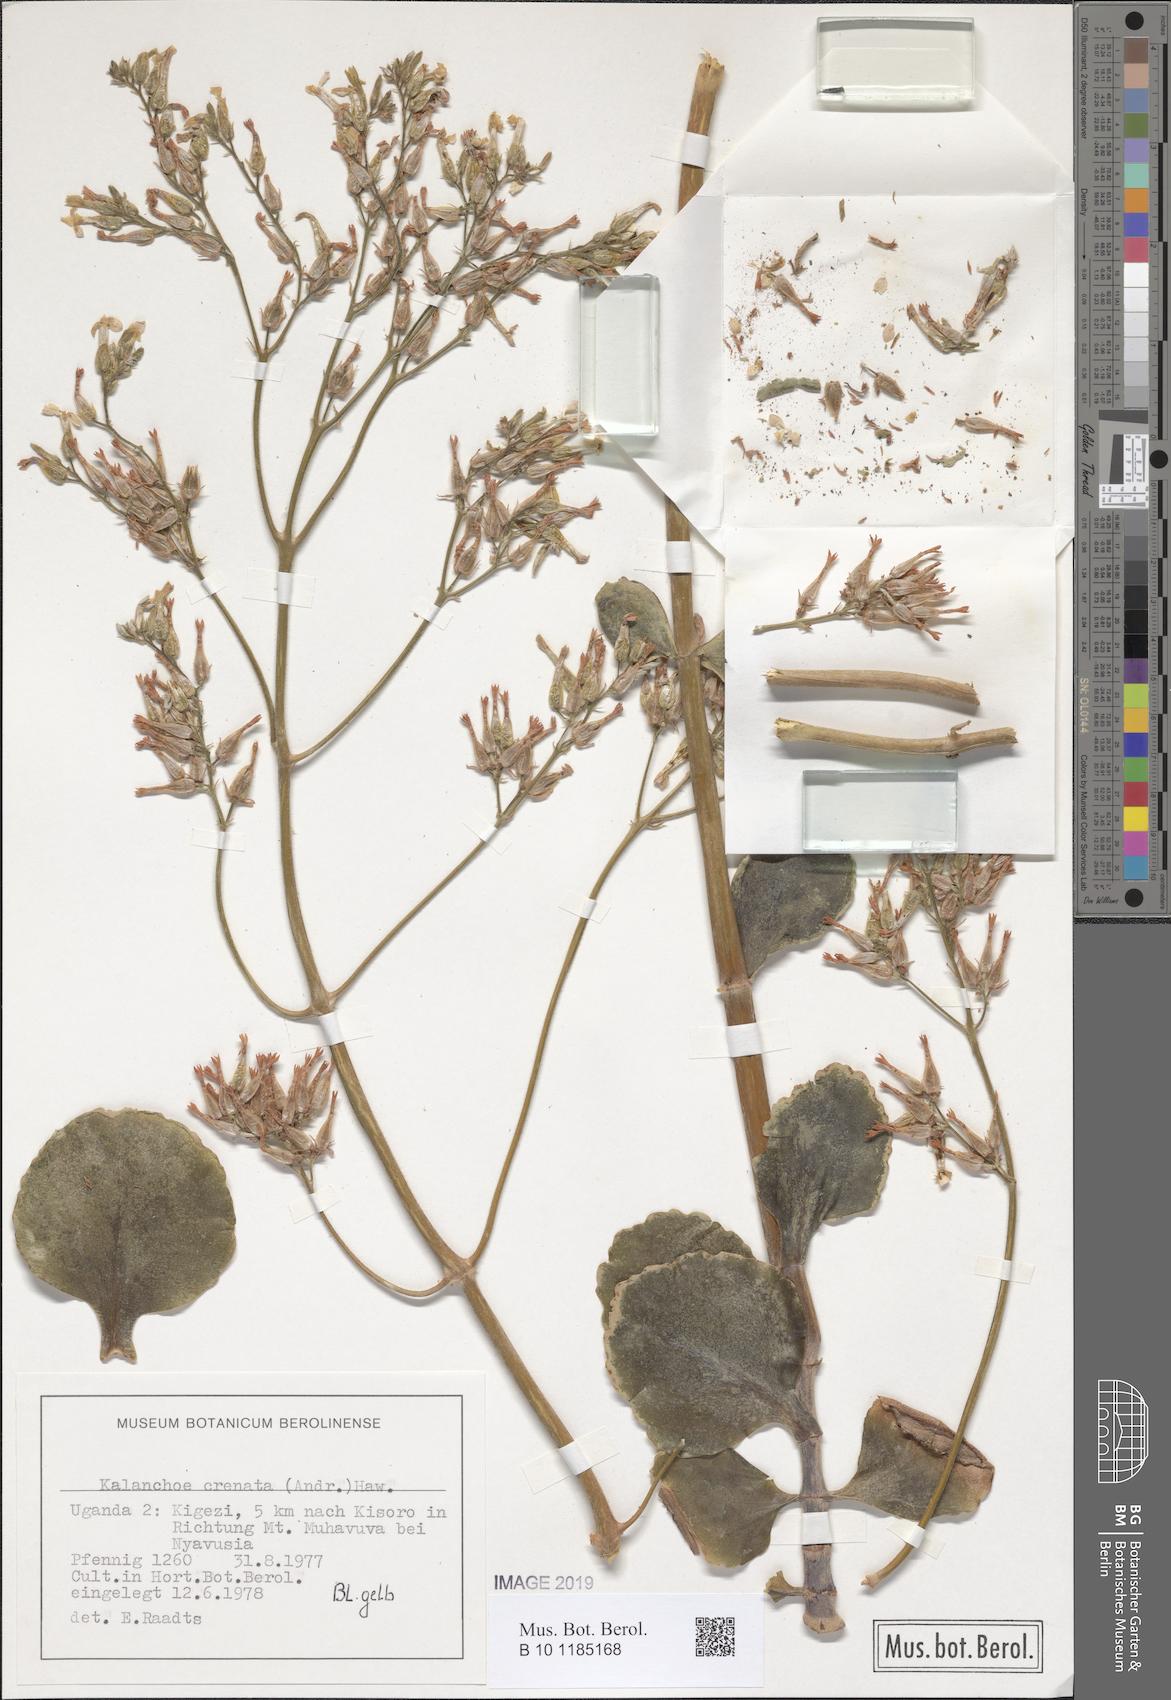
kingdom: Plantae
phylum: Tracheophyta
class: Magnoliopsida
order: Saxifragales
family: Crassulaceae
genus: Kalanchoe
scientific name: Kalanchoe crenata
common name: Neverdie
